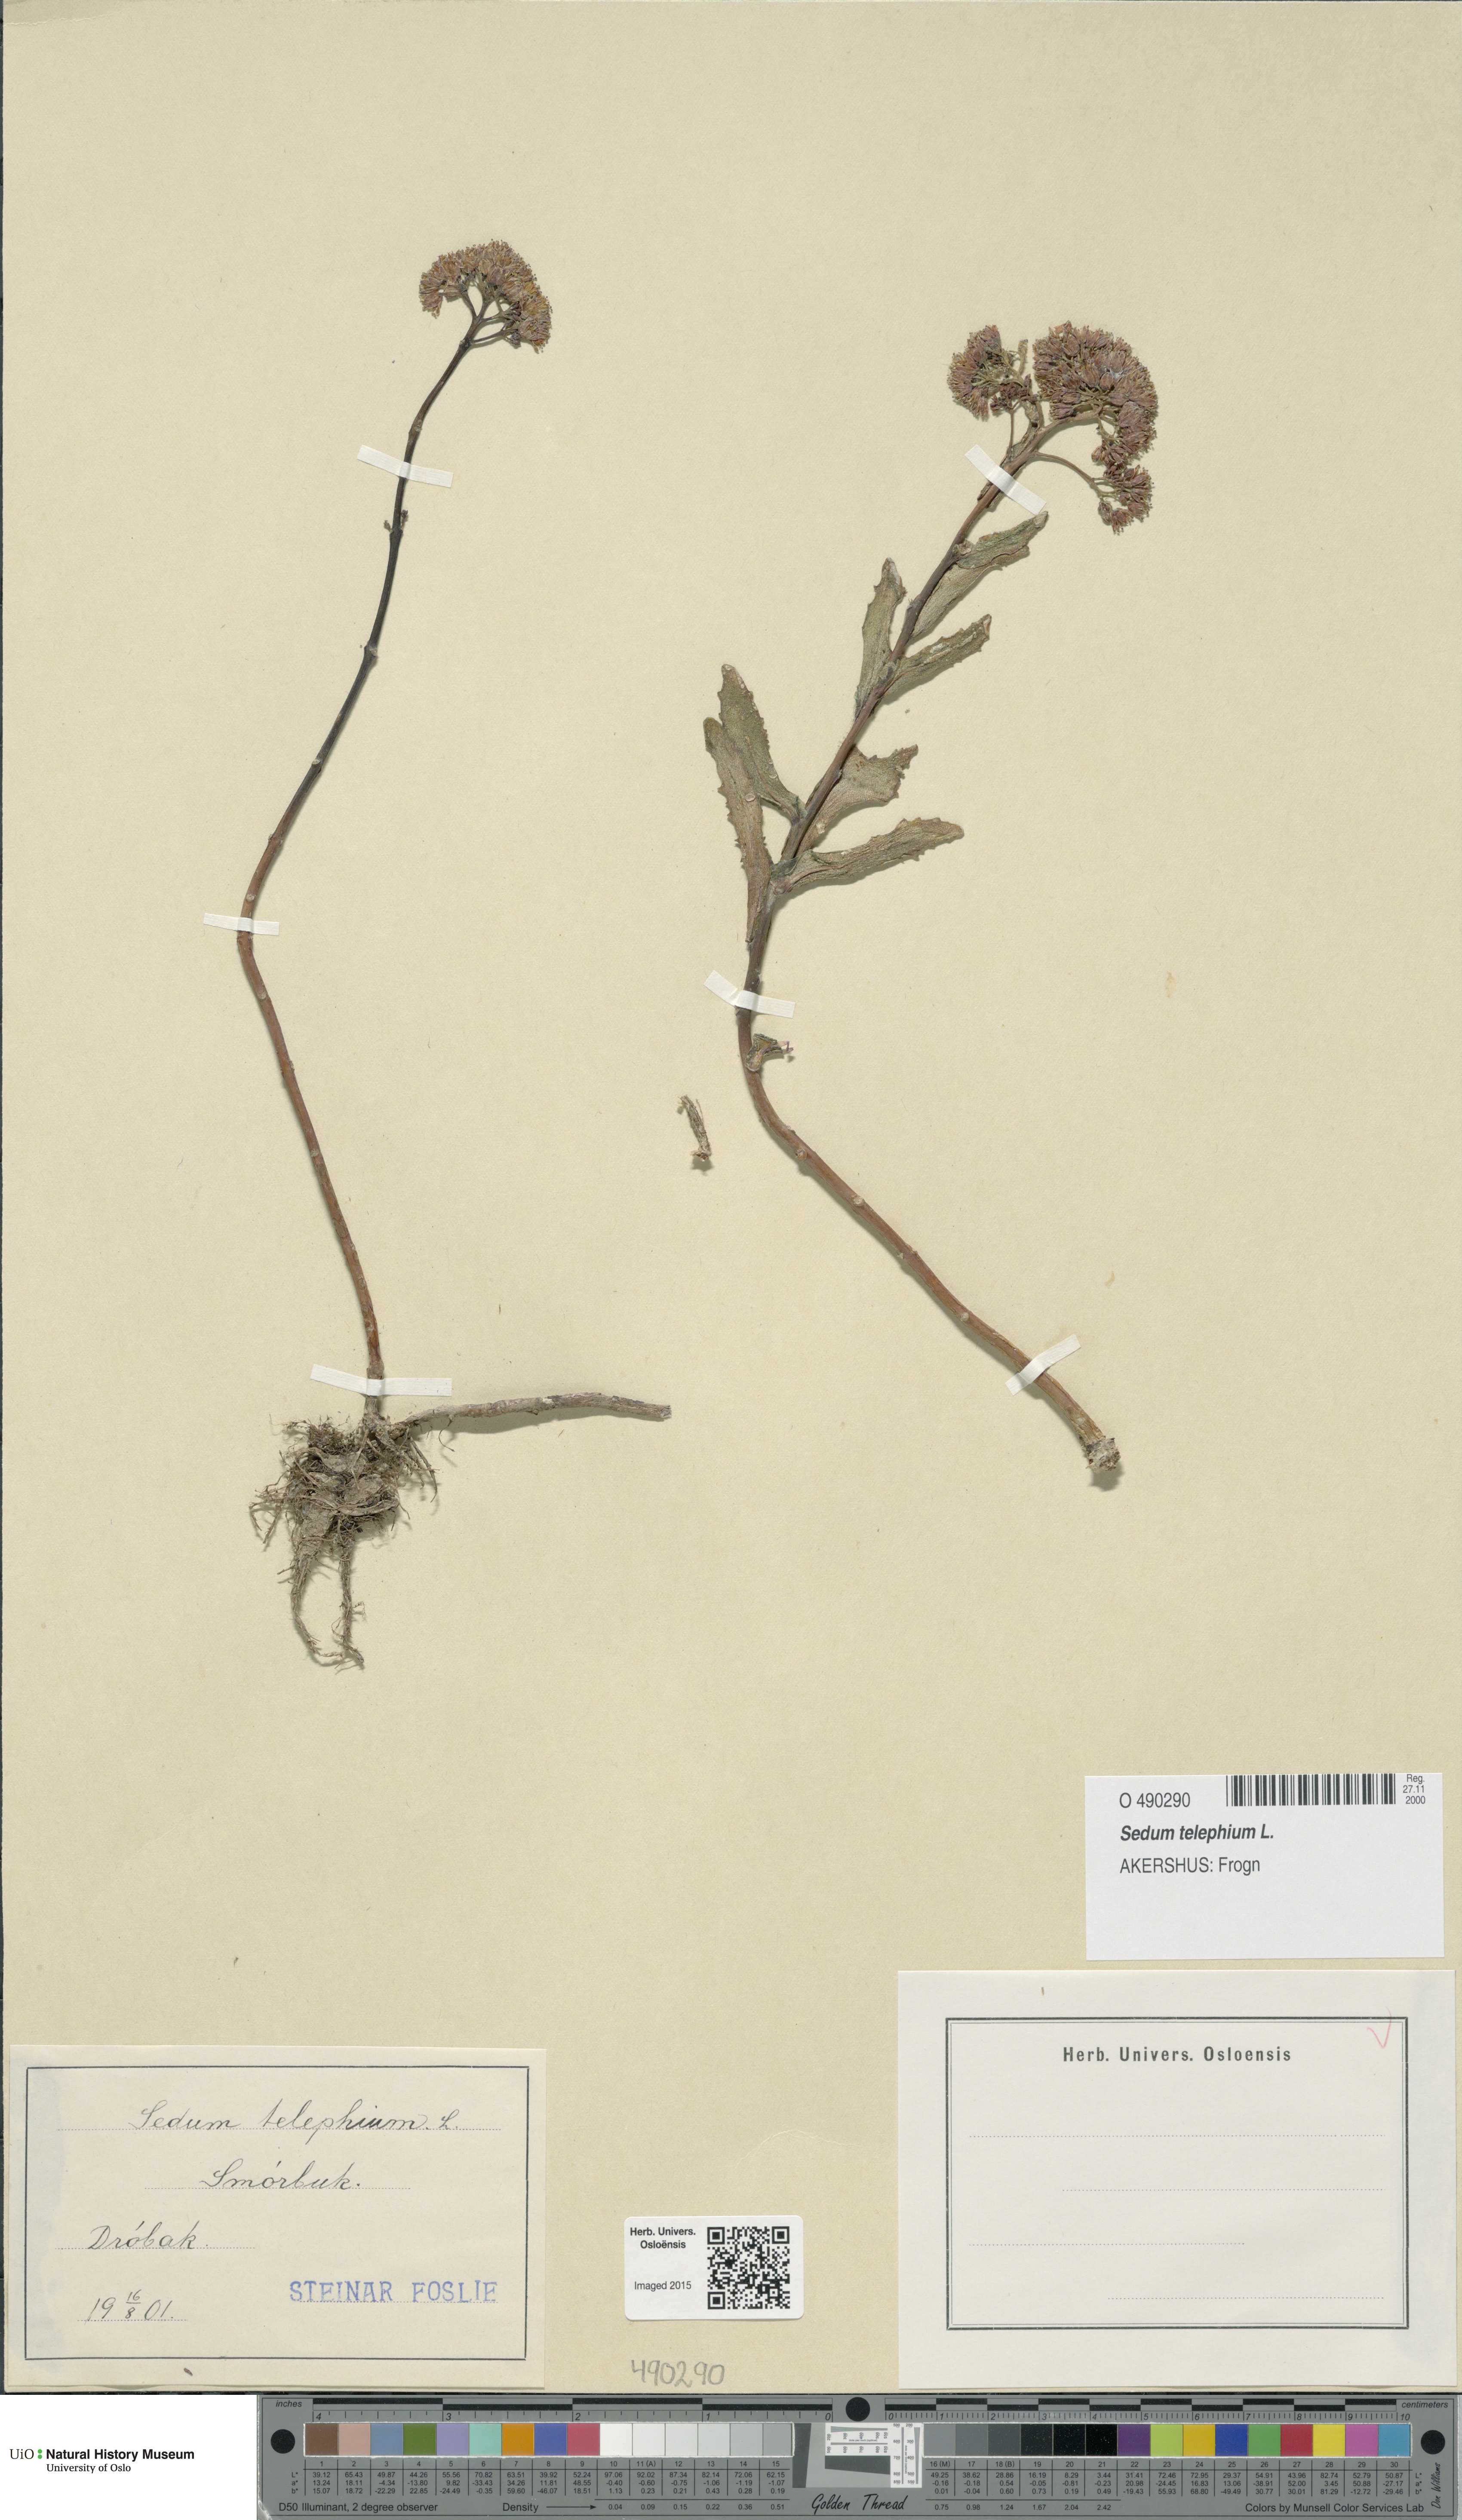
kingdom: Plantae
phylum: Tracheophyta
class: Magnoliopsida
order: Saxifragales
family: Crassulaceae
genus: Hylotelephium
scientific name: Hylotelephium telephium
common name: Live-forever
